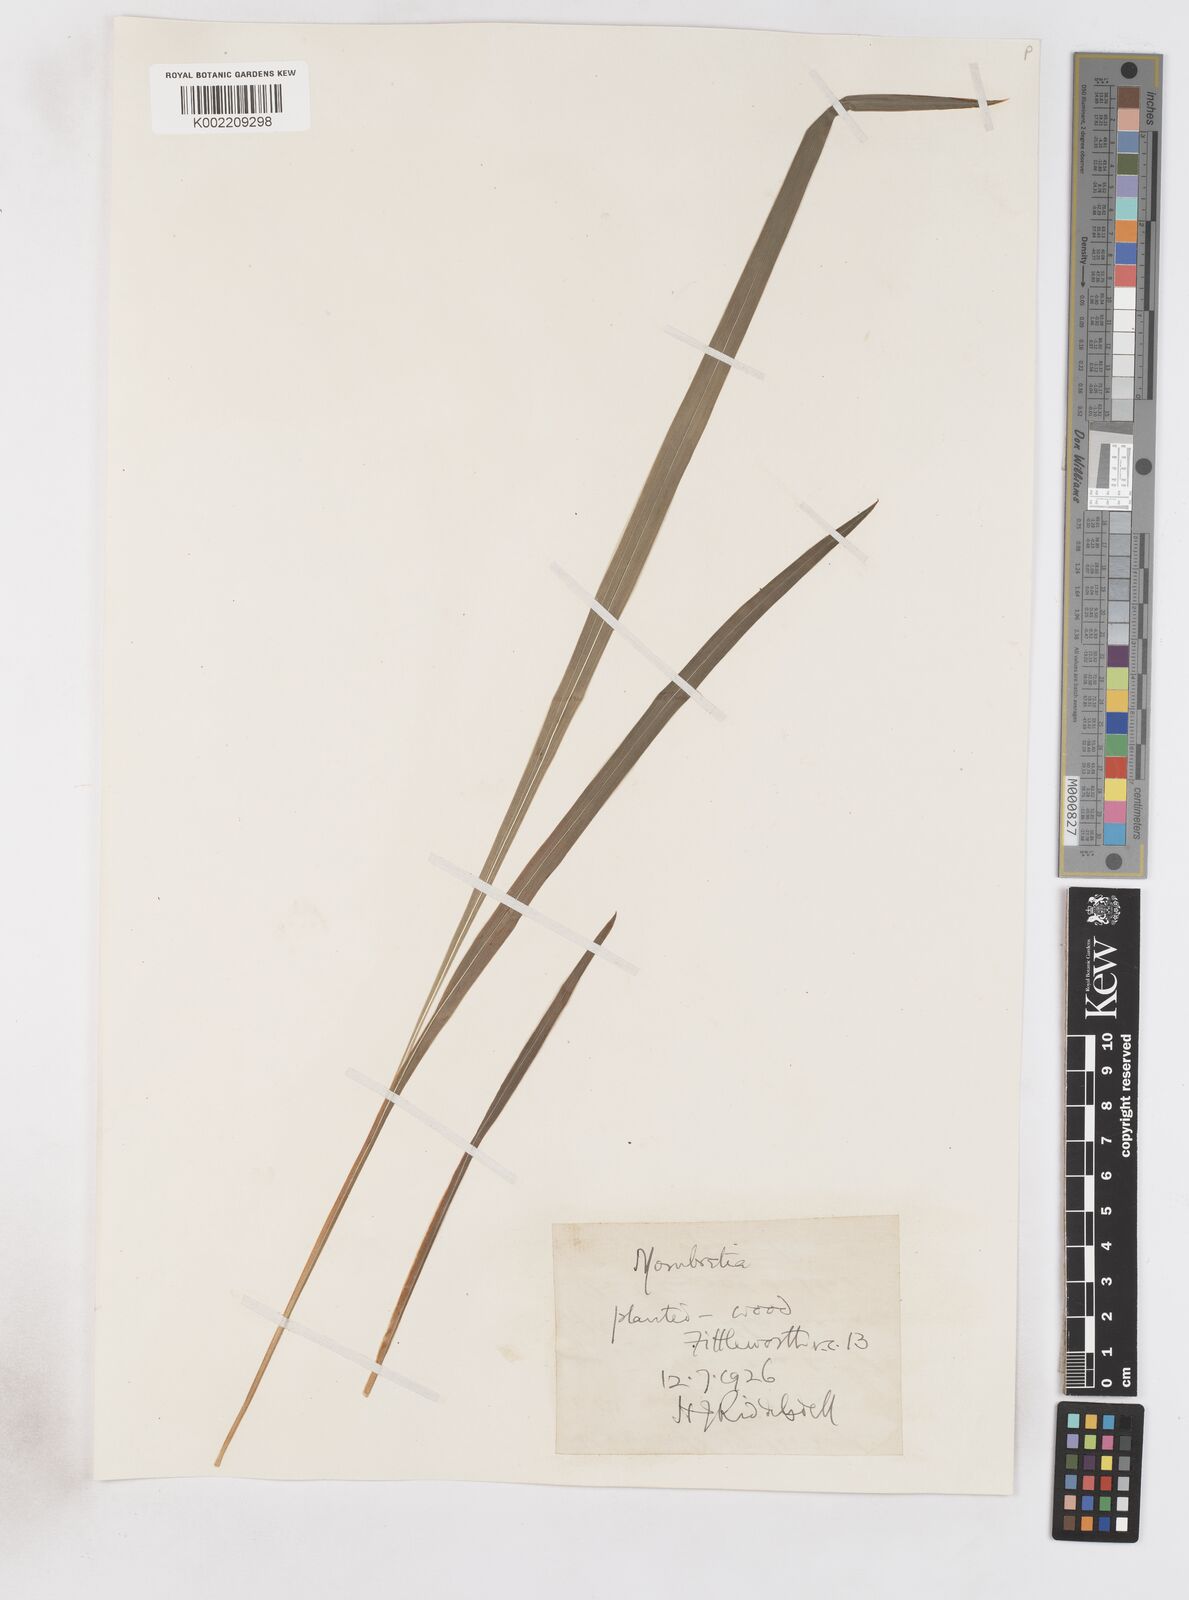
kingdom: Plantae
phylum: Tracheophyta
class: Liliopsida
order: Asparagales
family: Iridaceae
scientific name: Iridaceae
